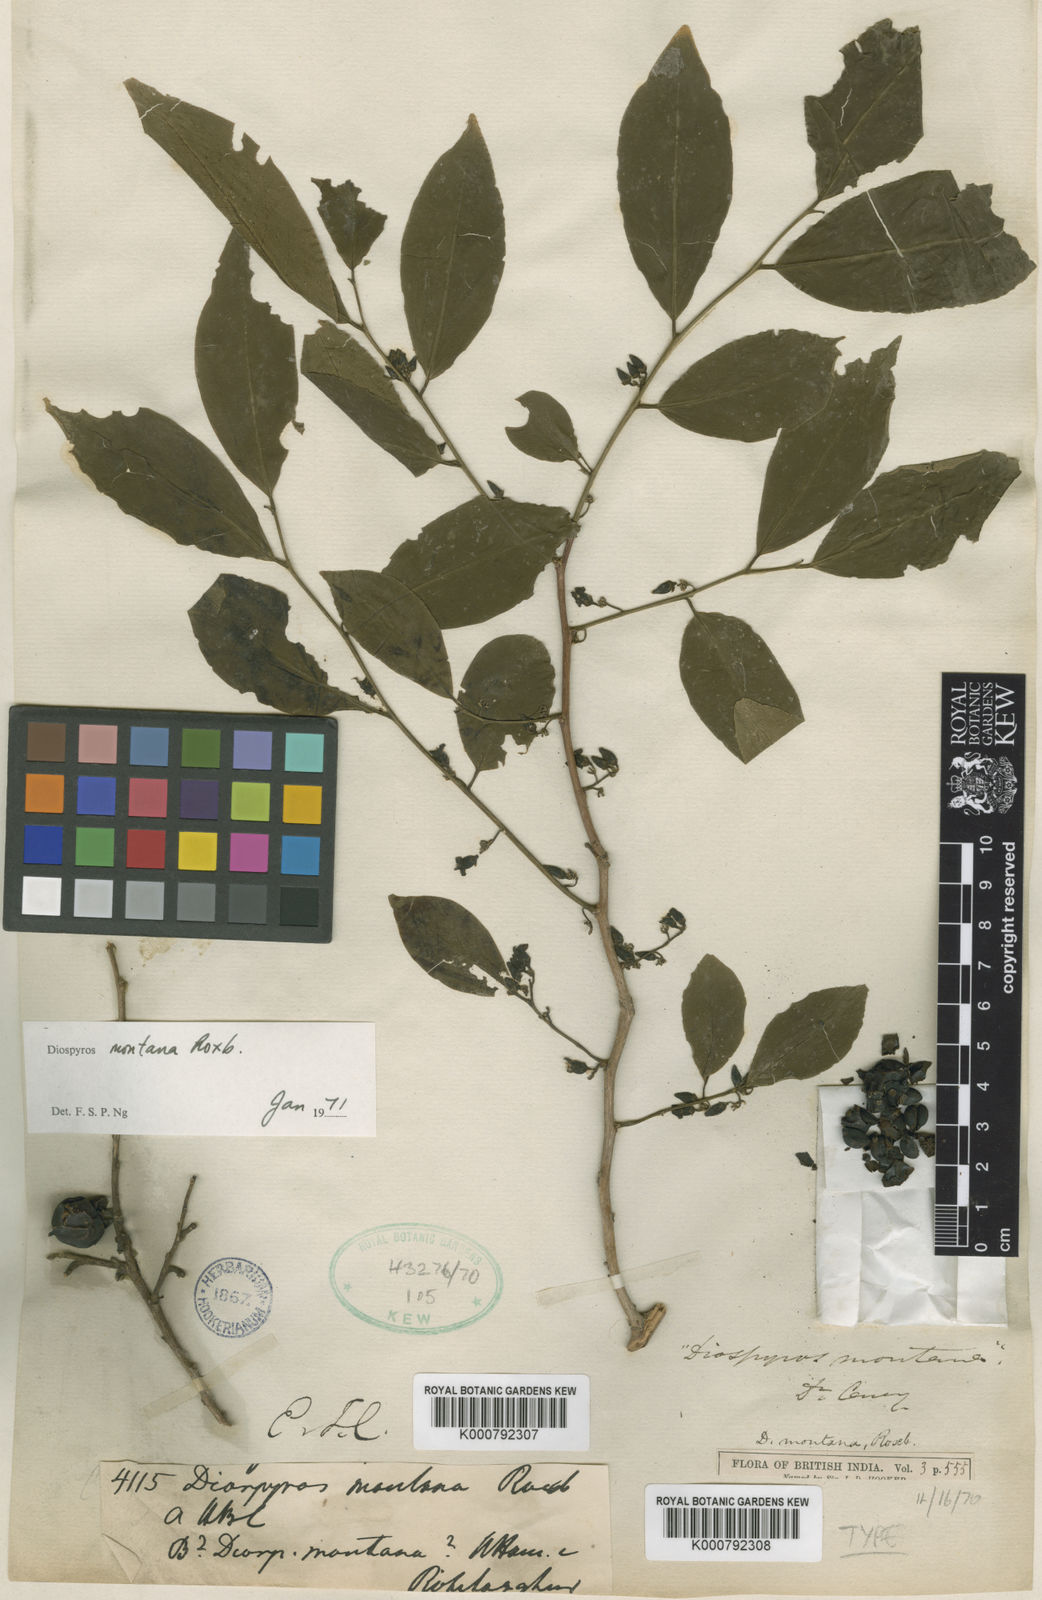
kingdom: Plantae
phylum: Tracheophyta
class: Magnoliopsida
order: Ericales
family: Ebenaceae
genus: Diospyros
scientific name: Diospyros montana
